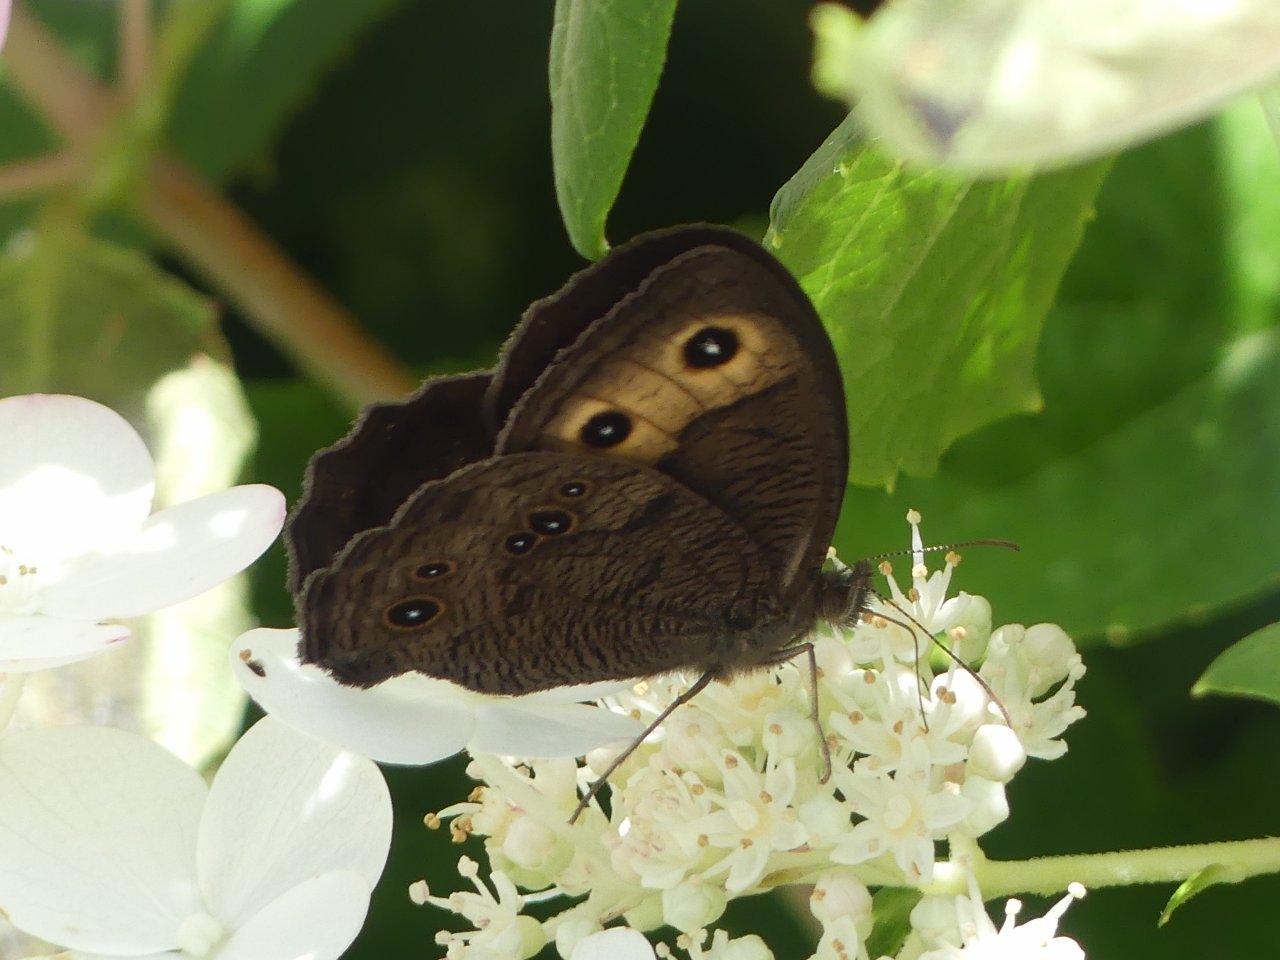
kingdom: Animalia
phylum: Arthropoda
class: Insecta
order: Lepidoptera
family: Nymphalidae
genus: Cercyonis
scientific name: Cercyonis pegala
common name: Common Wood-Nymph
